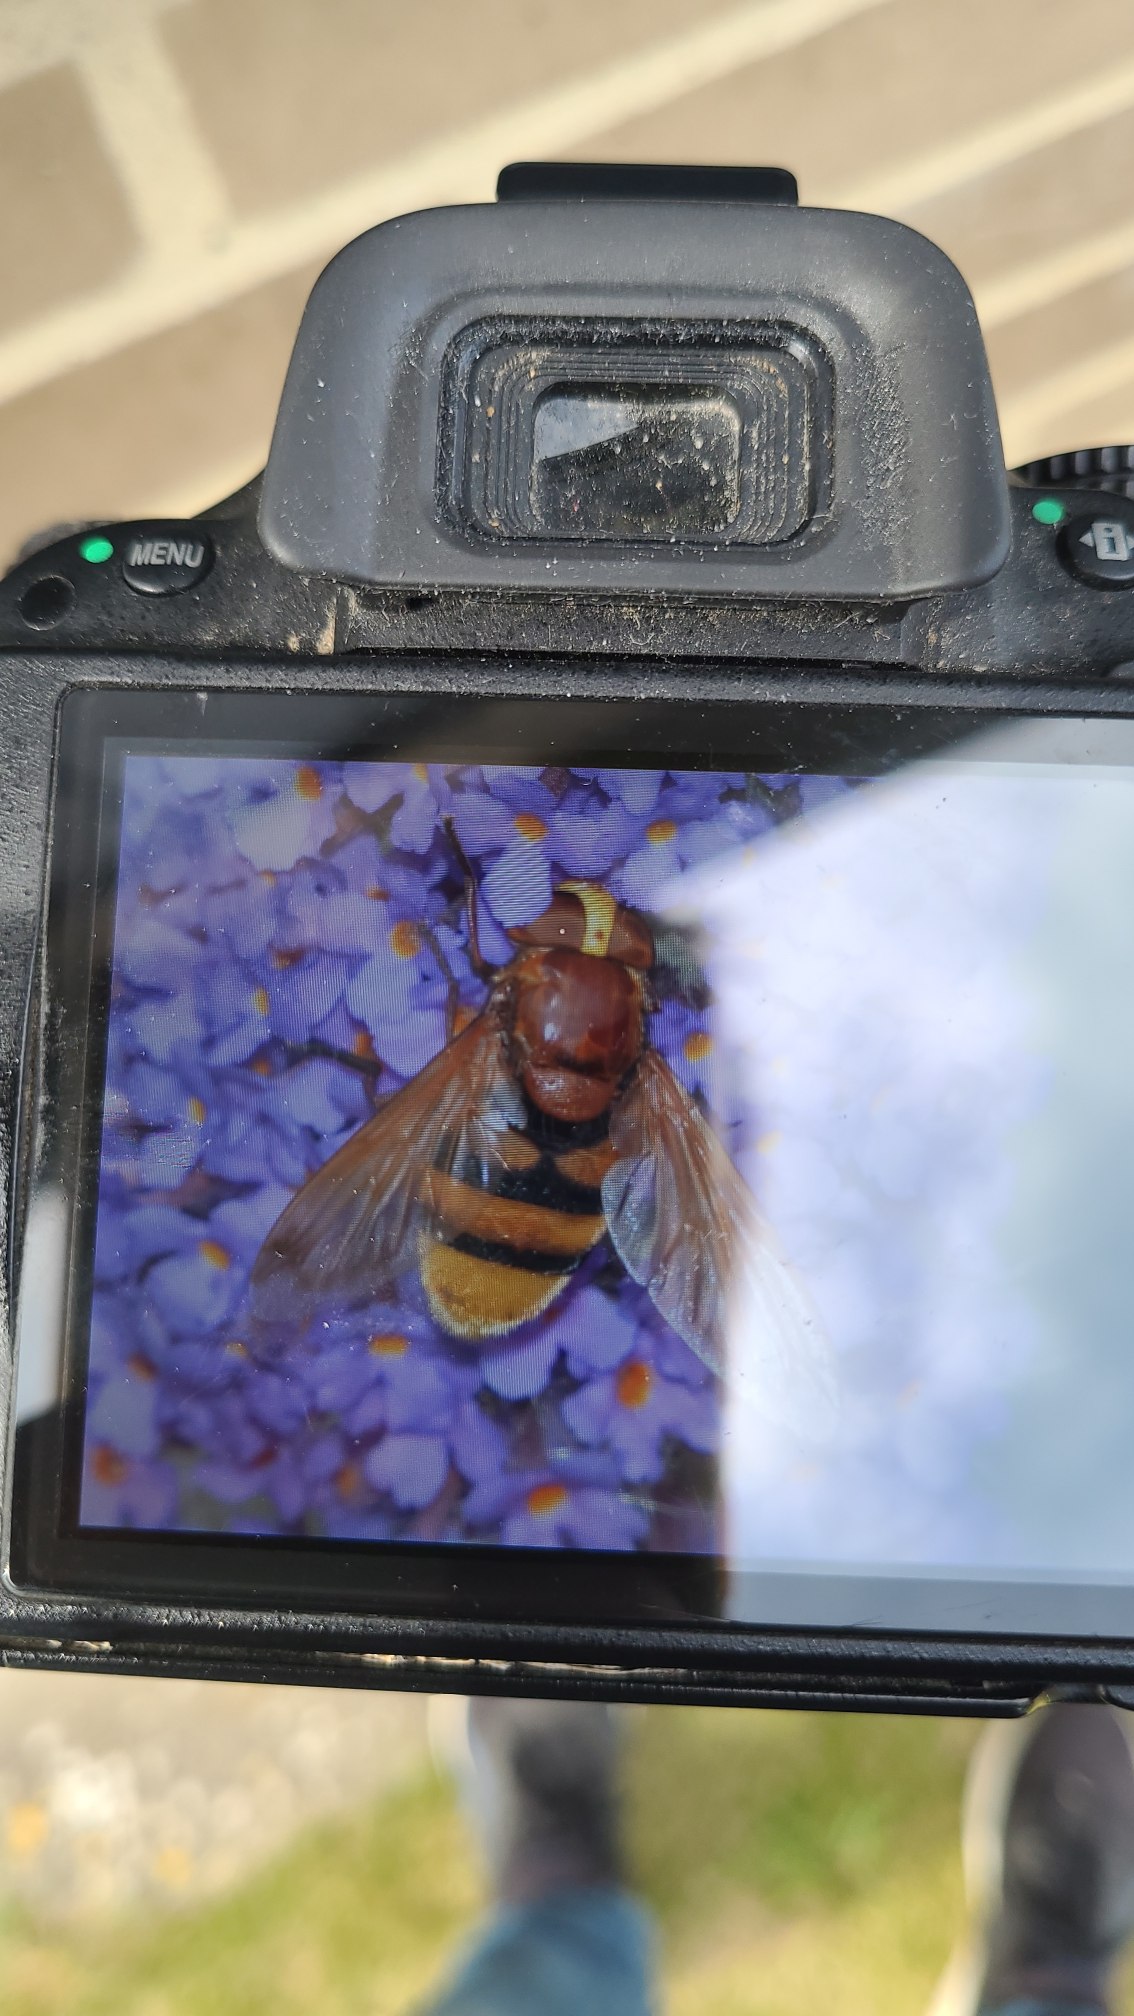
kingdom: Animalia
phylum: Arthropoda
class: Insecta
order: Diptera
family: Syrphidae
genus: Volucella
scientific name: Volucella zonaria
